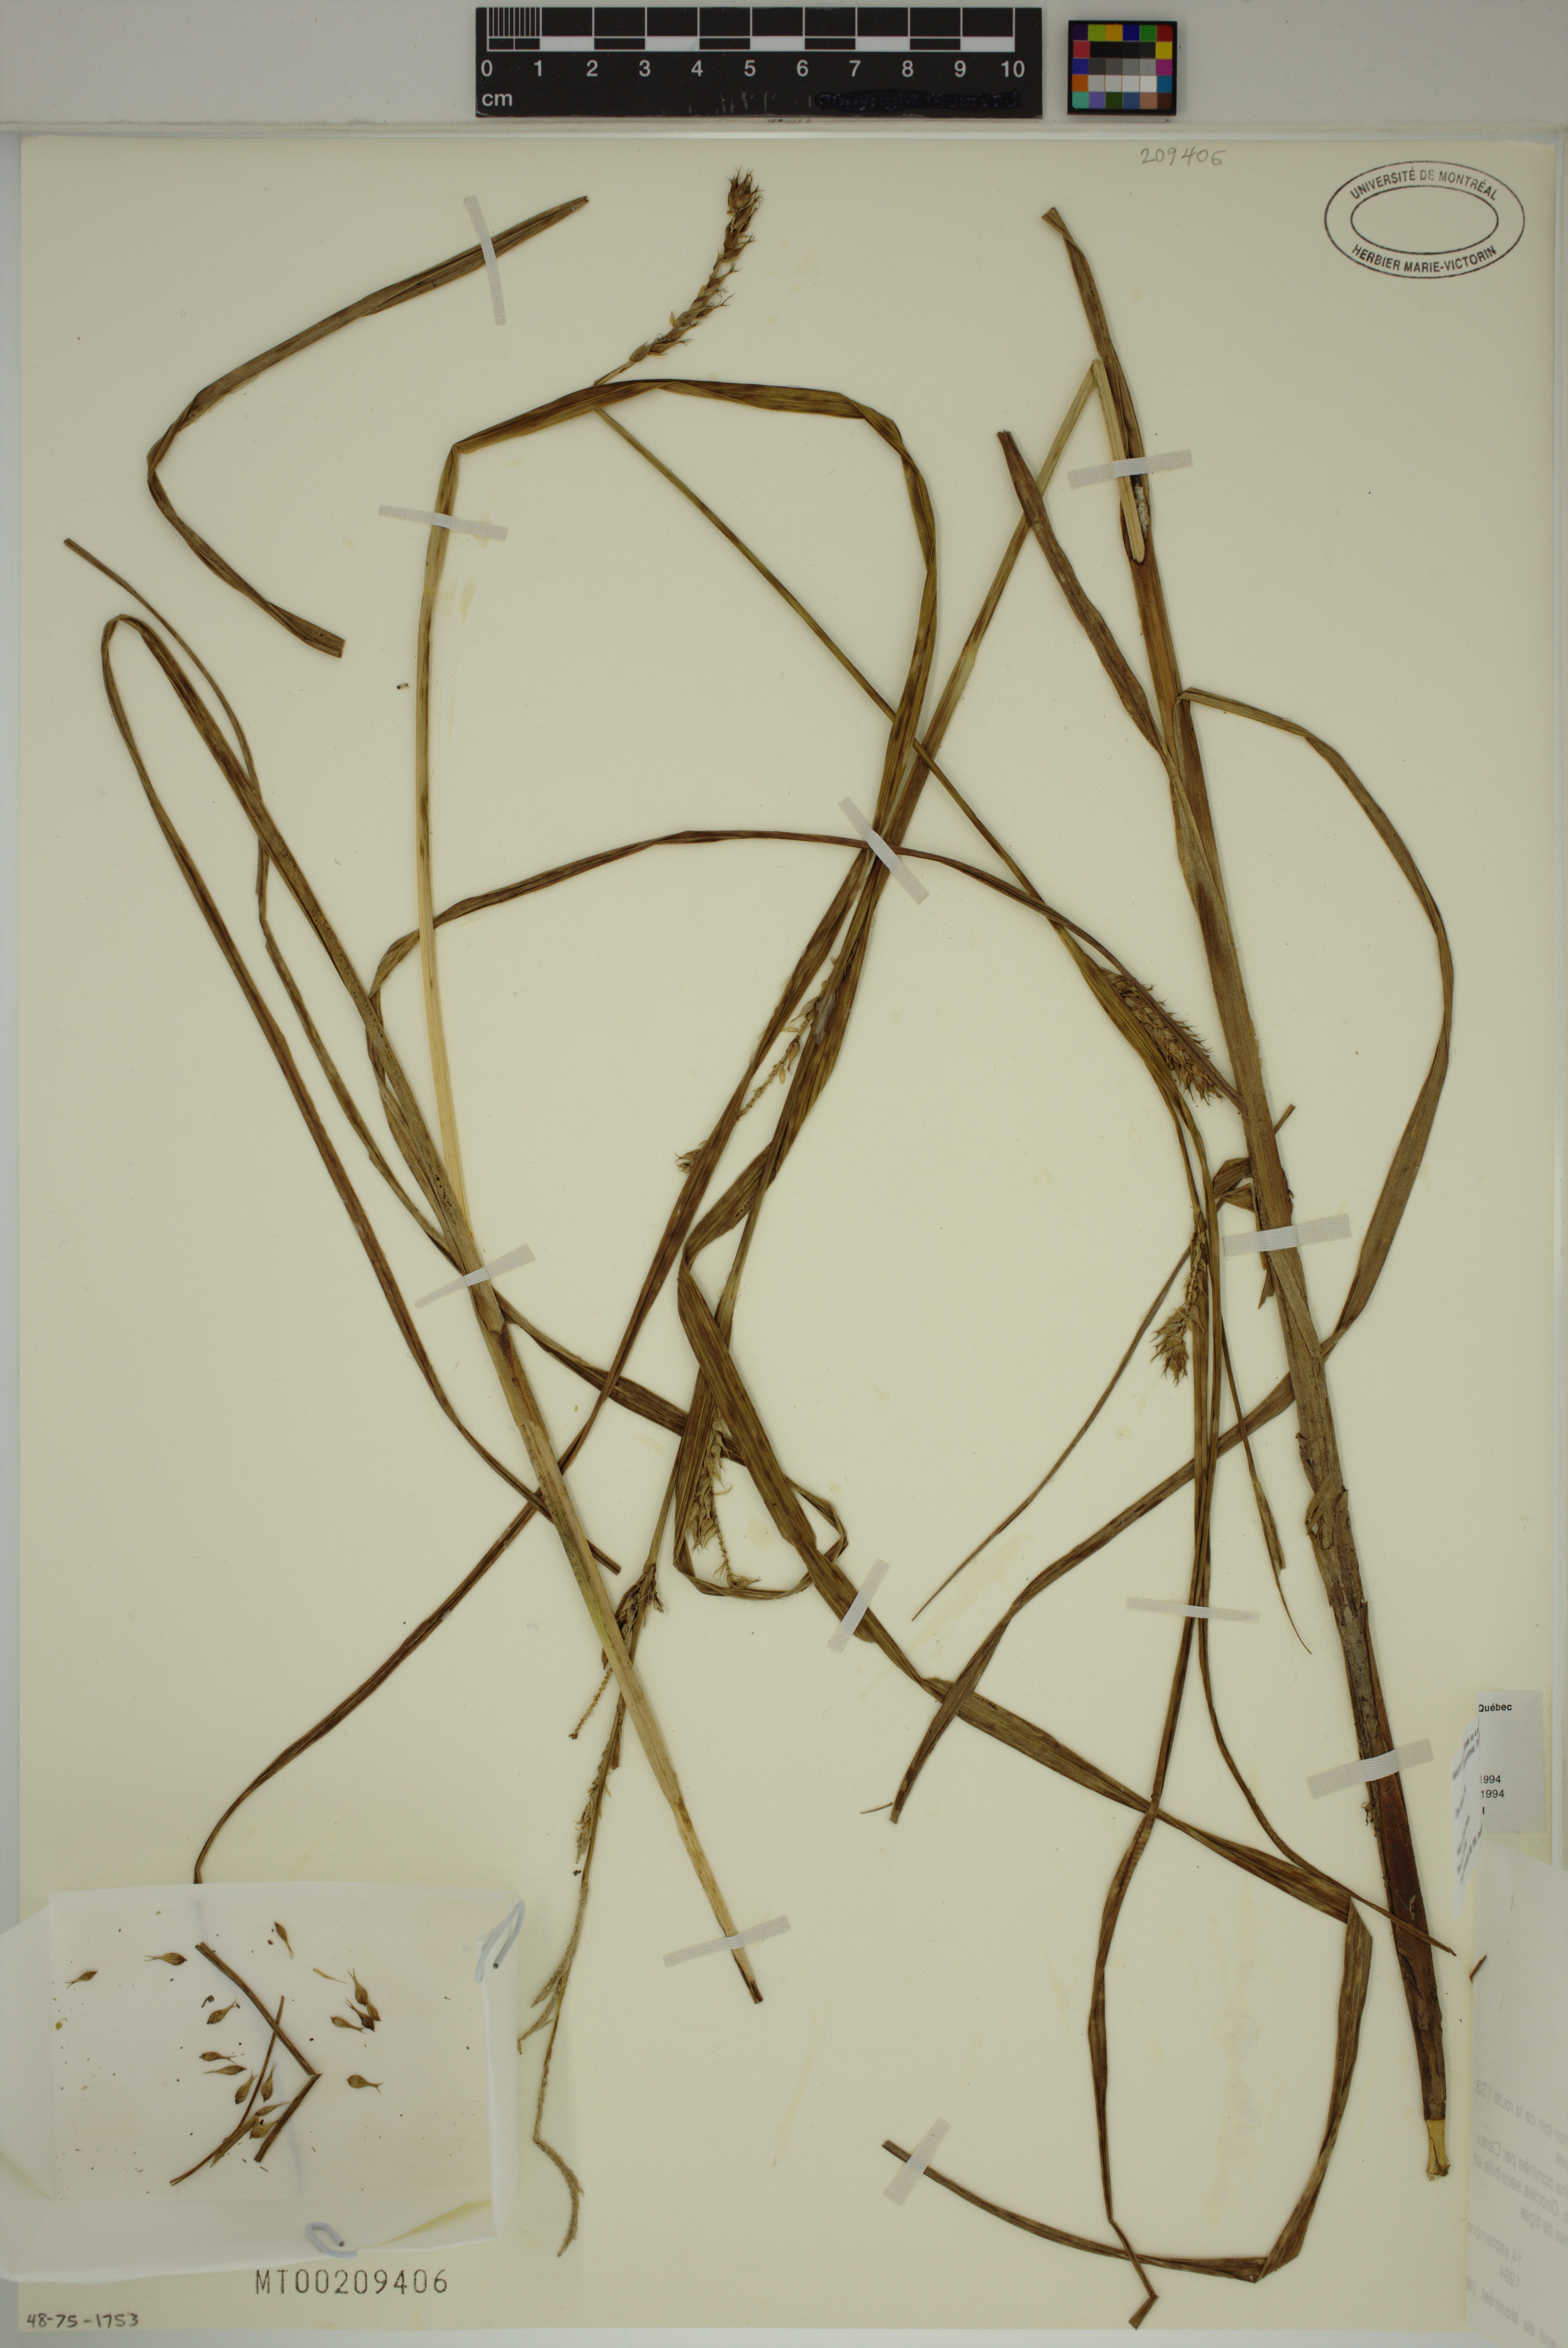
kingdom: Plantae
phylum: Tracheophyta
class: Liliopsida
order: Poales
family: Cyperaceae
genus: Carex
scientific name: Carex atherodes
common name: Wheat sedge
